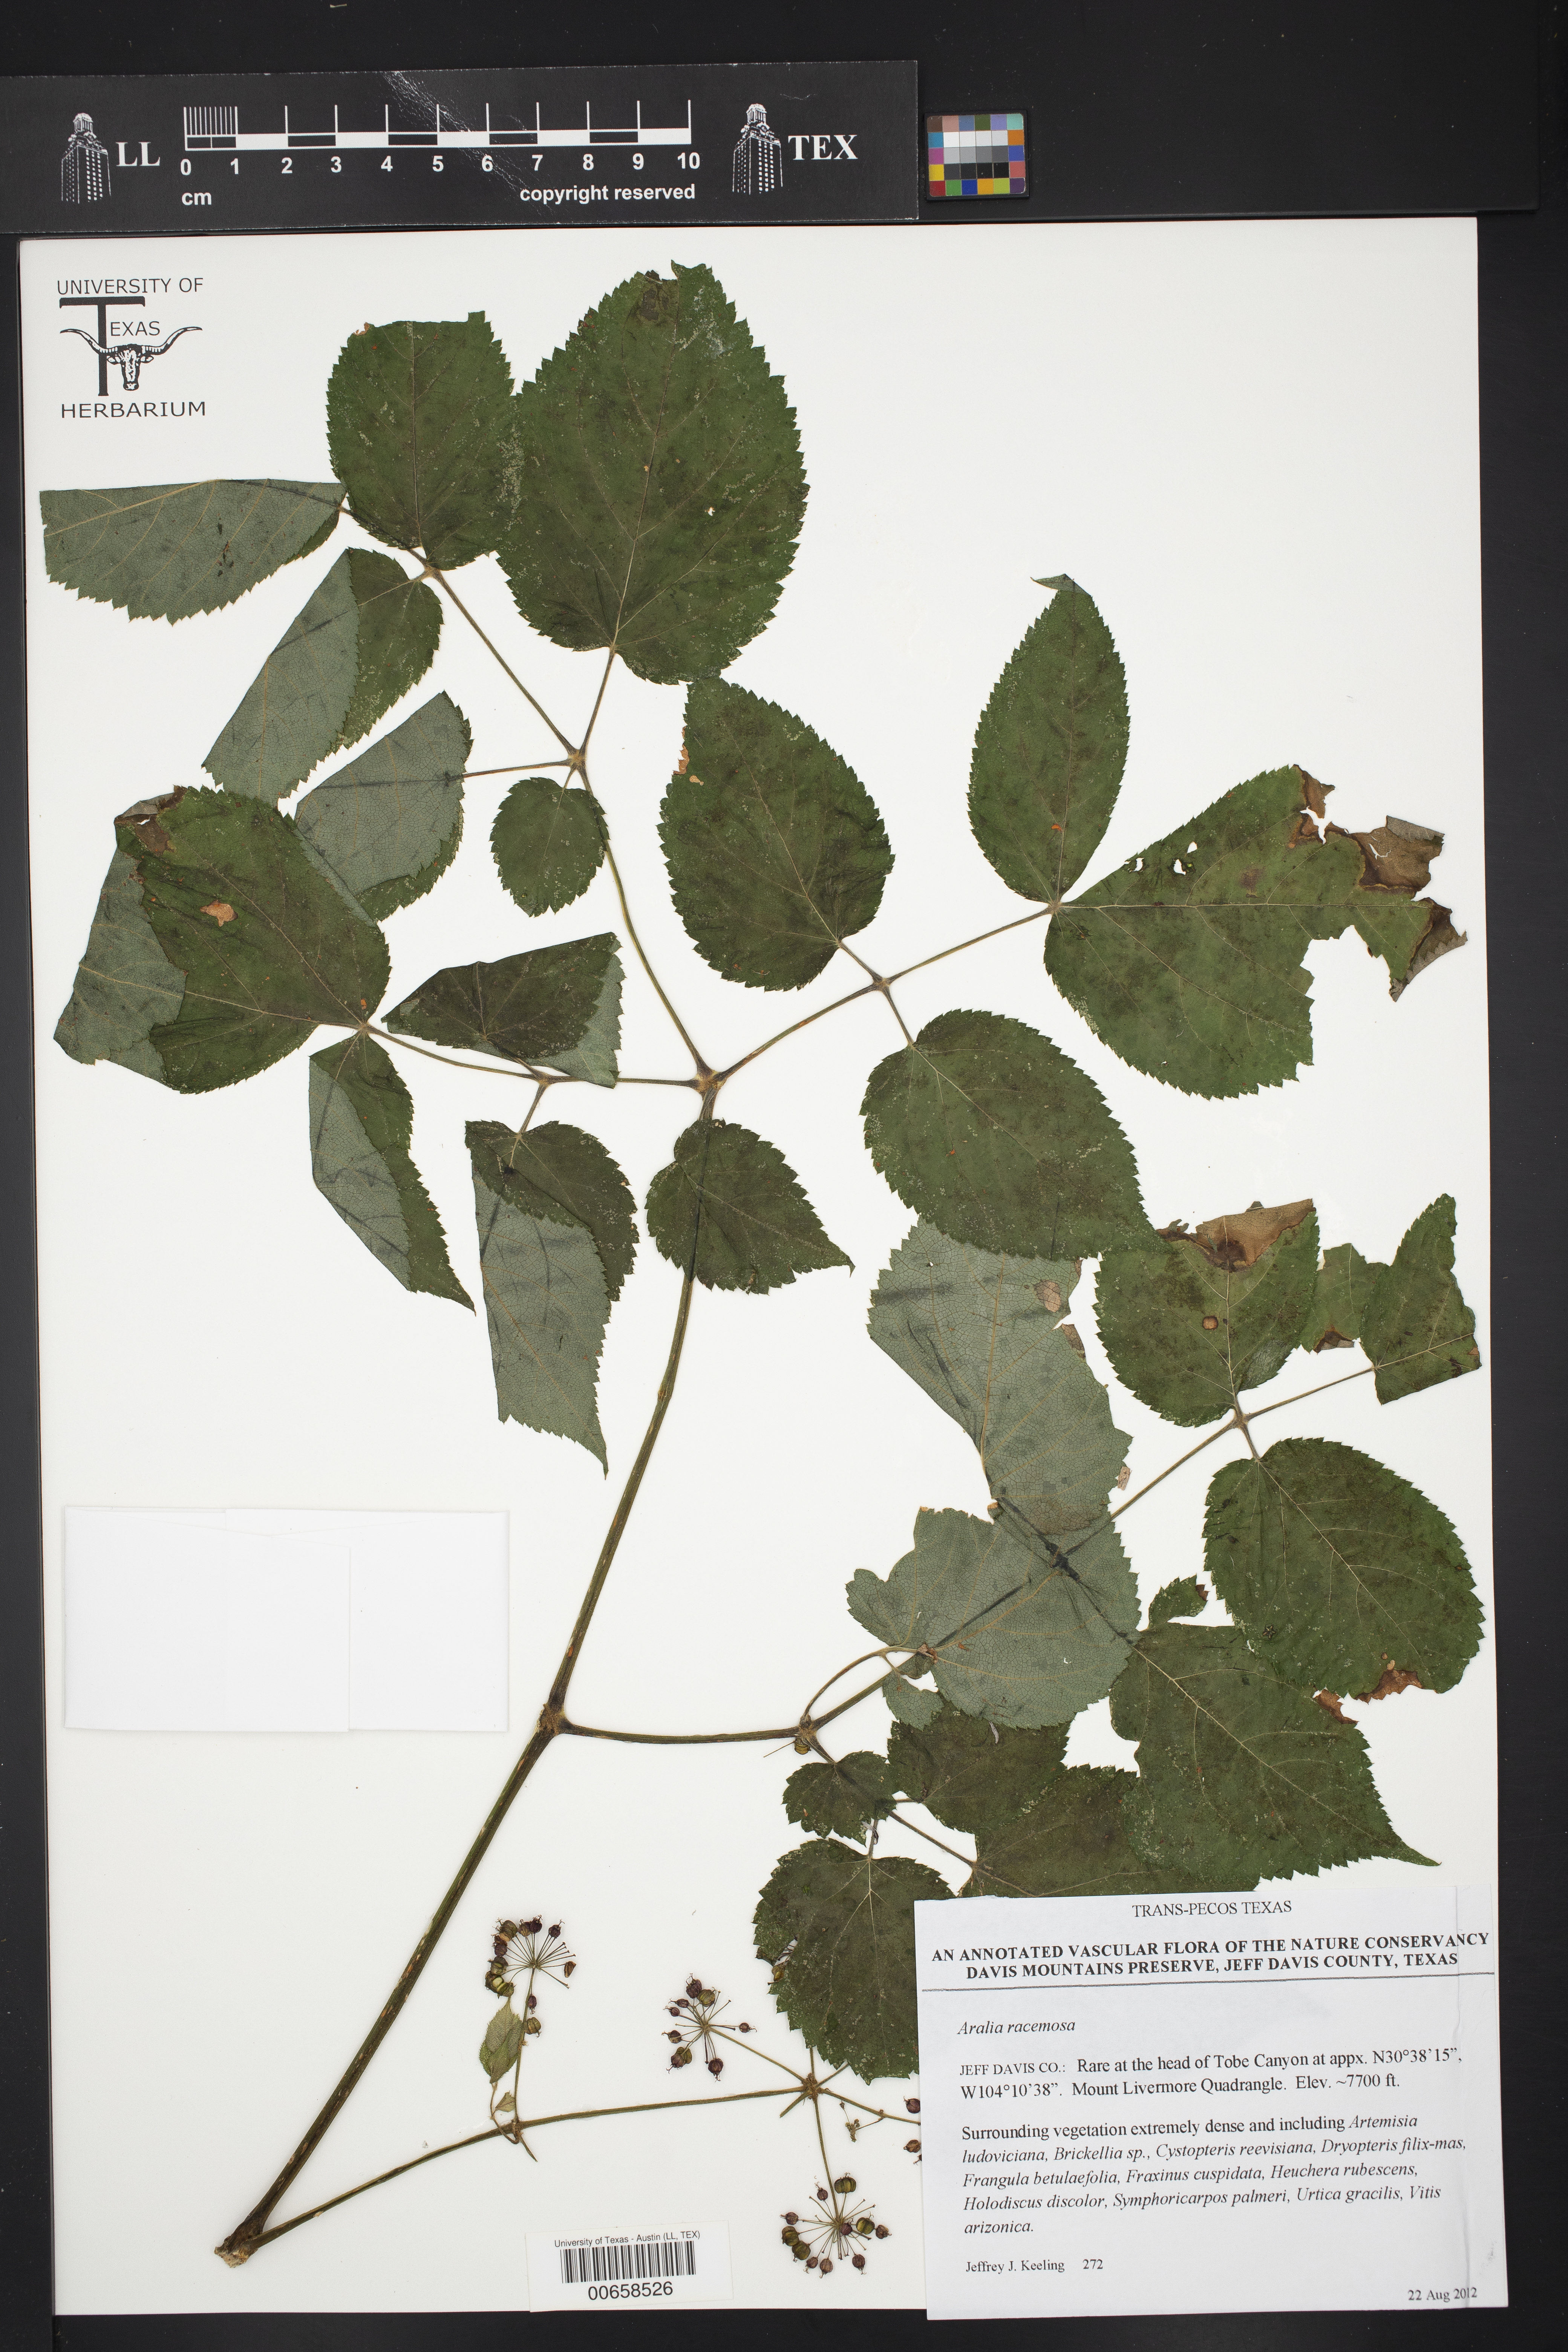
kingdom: Plantae
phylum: Tracheophyta
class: Magnoliopsida
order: Apiales
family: Araliaceae
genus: Aralia
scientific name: Aralia bicrenata
